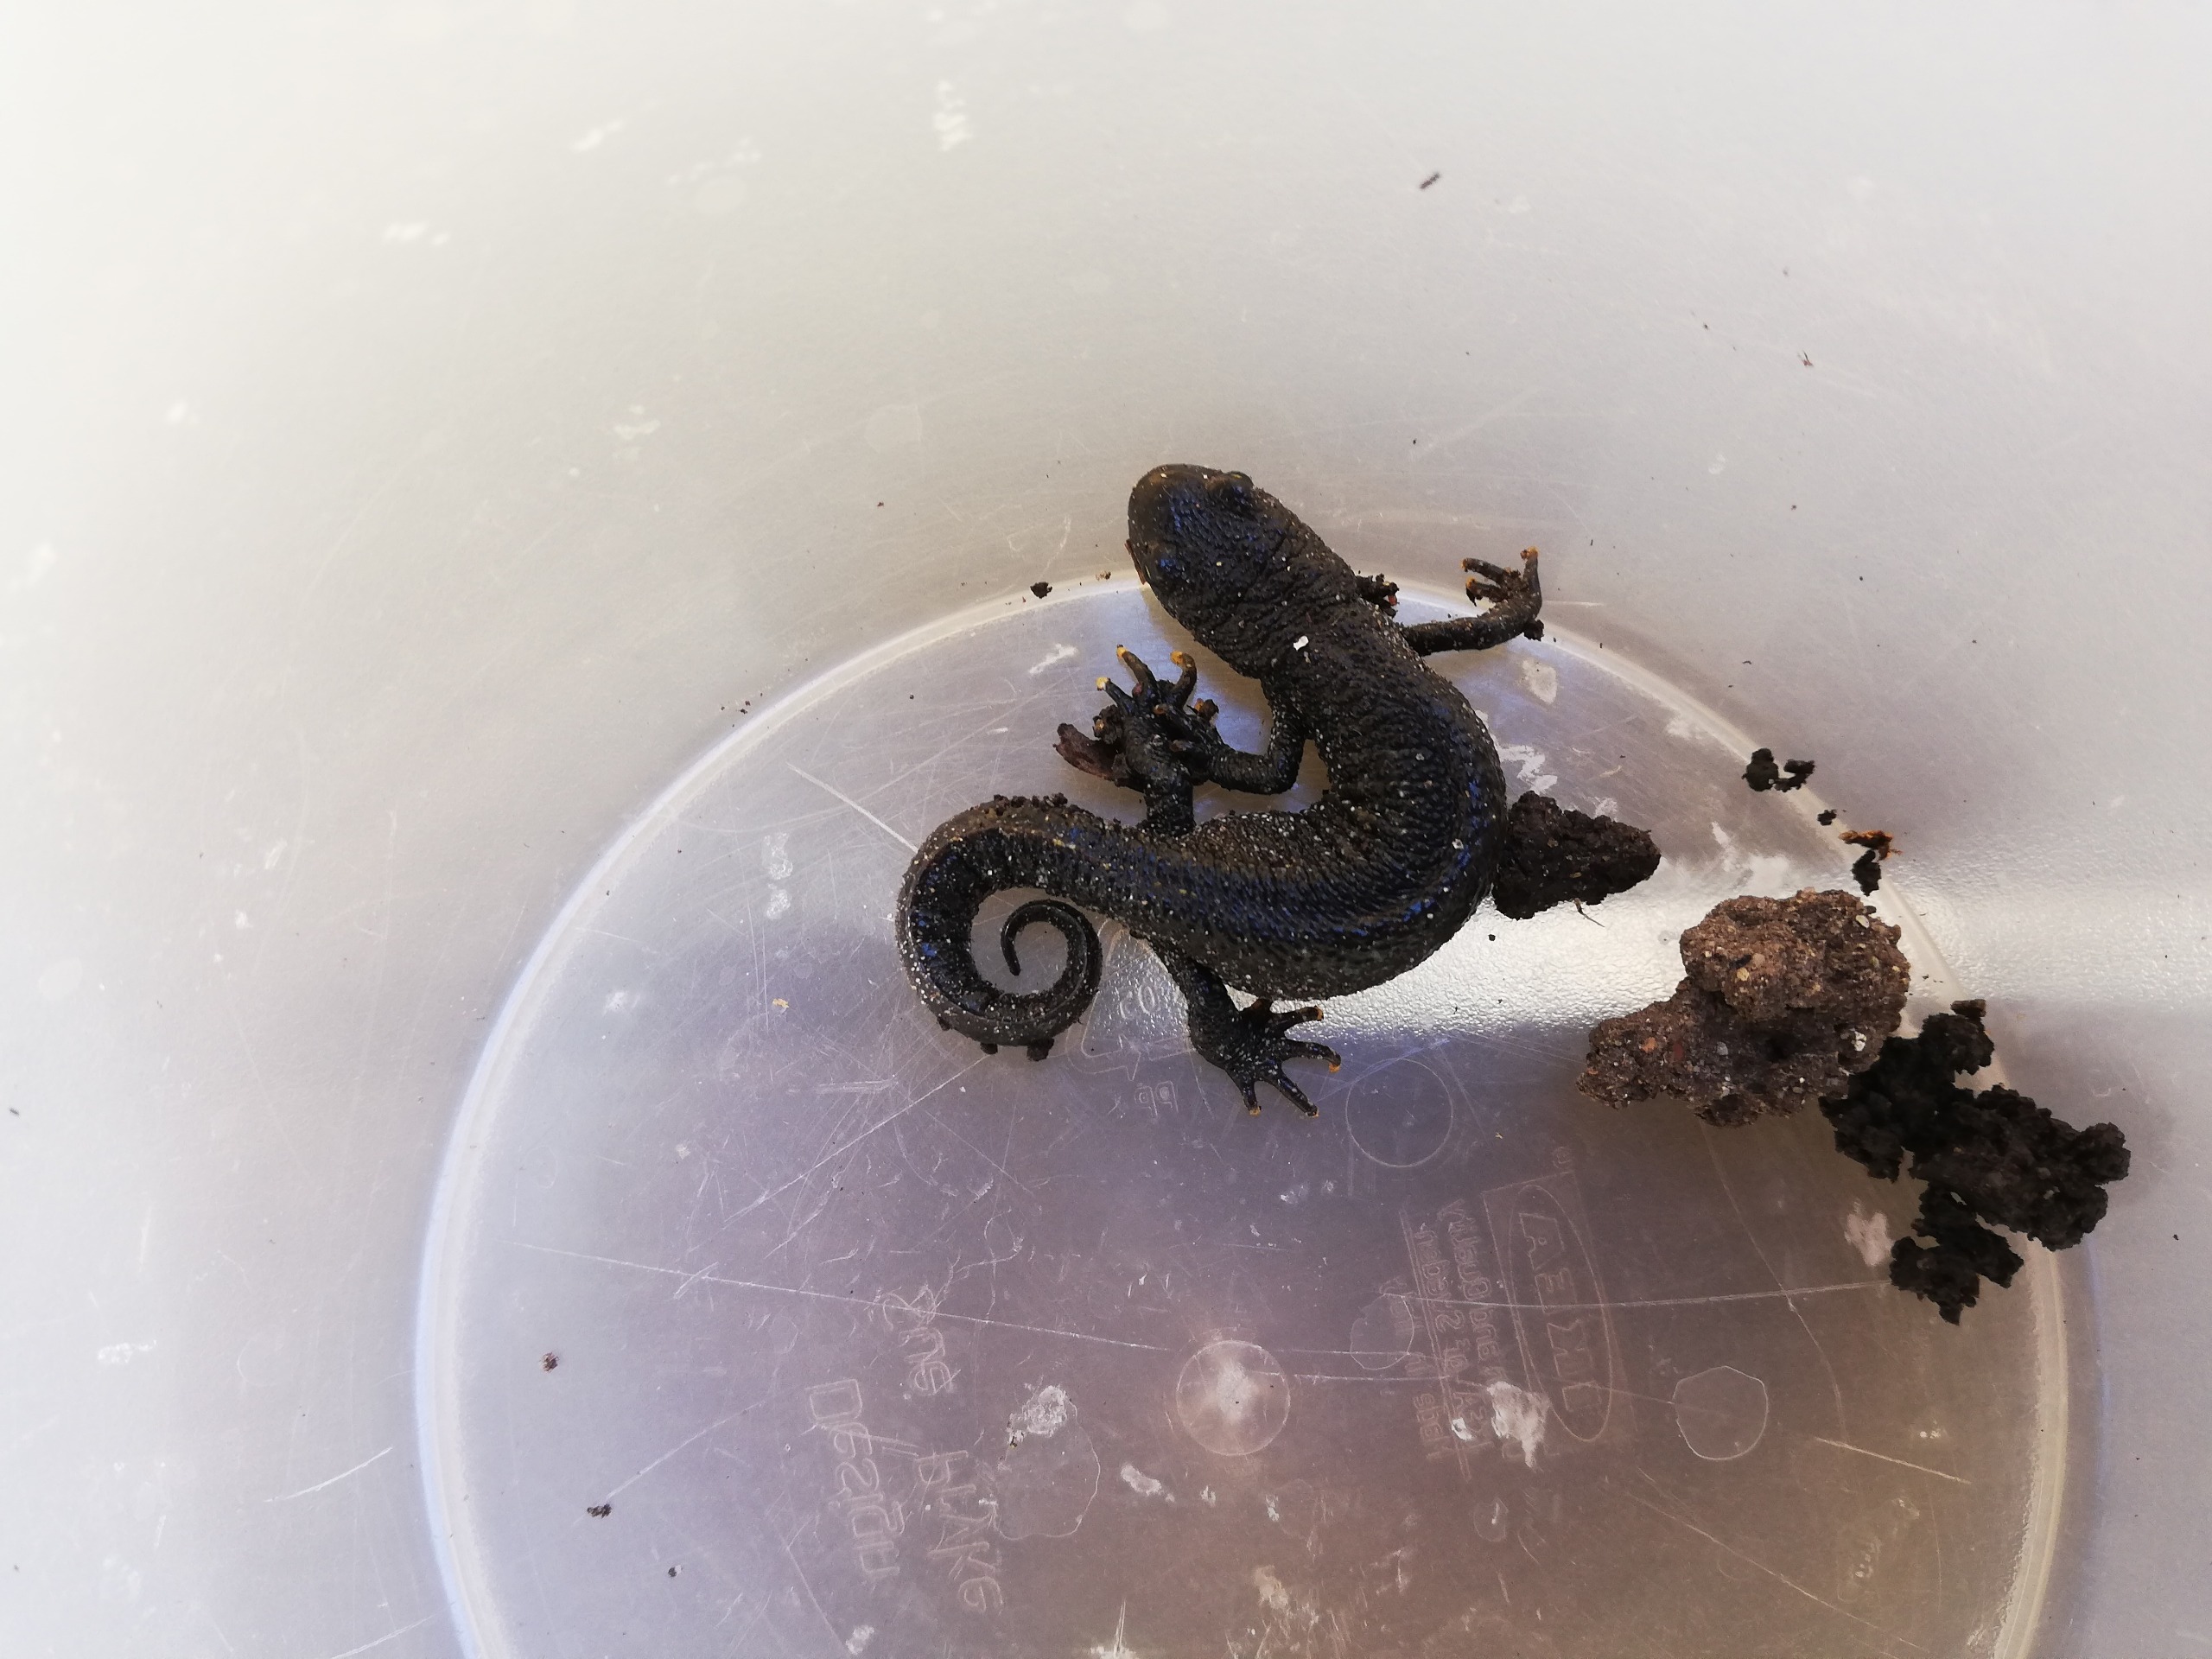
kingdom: Animalia
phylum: Chordata
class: Amphibia
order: Caudata
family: Salamandridae
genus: Triturus
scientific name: Triturus cristatus
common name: Stor vandsalamander
